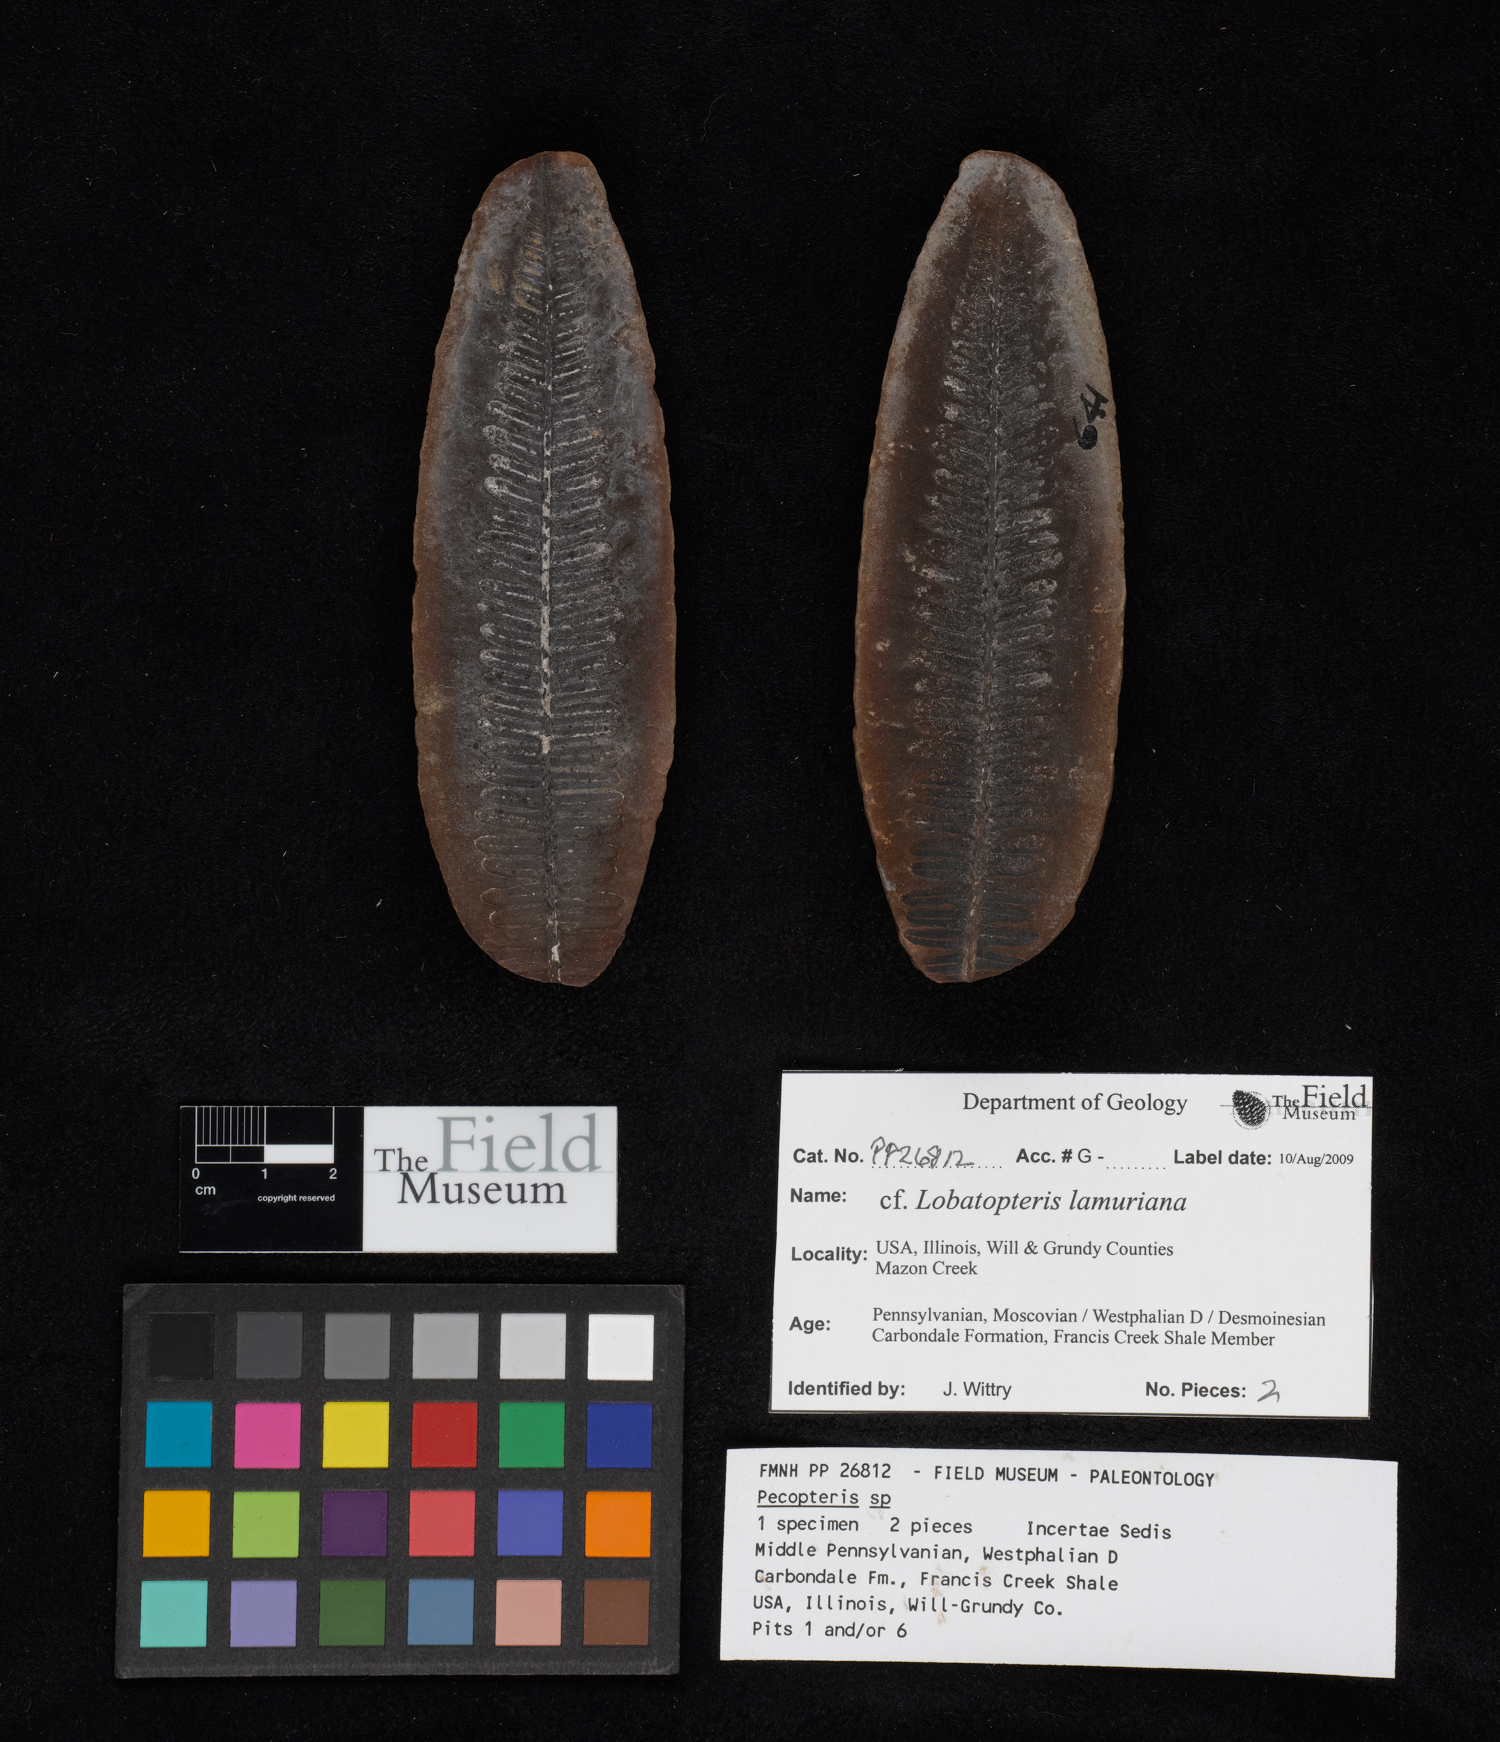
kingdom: Plantae
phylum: Tracheophyta
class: Polypodiopsida
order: Marattiales
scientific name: Marattiales
